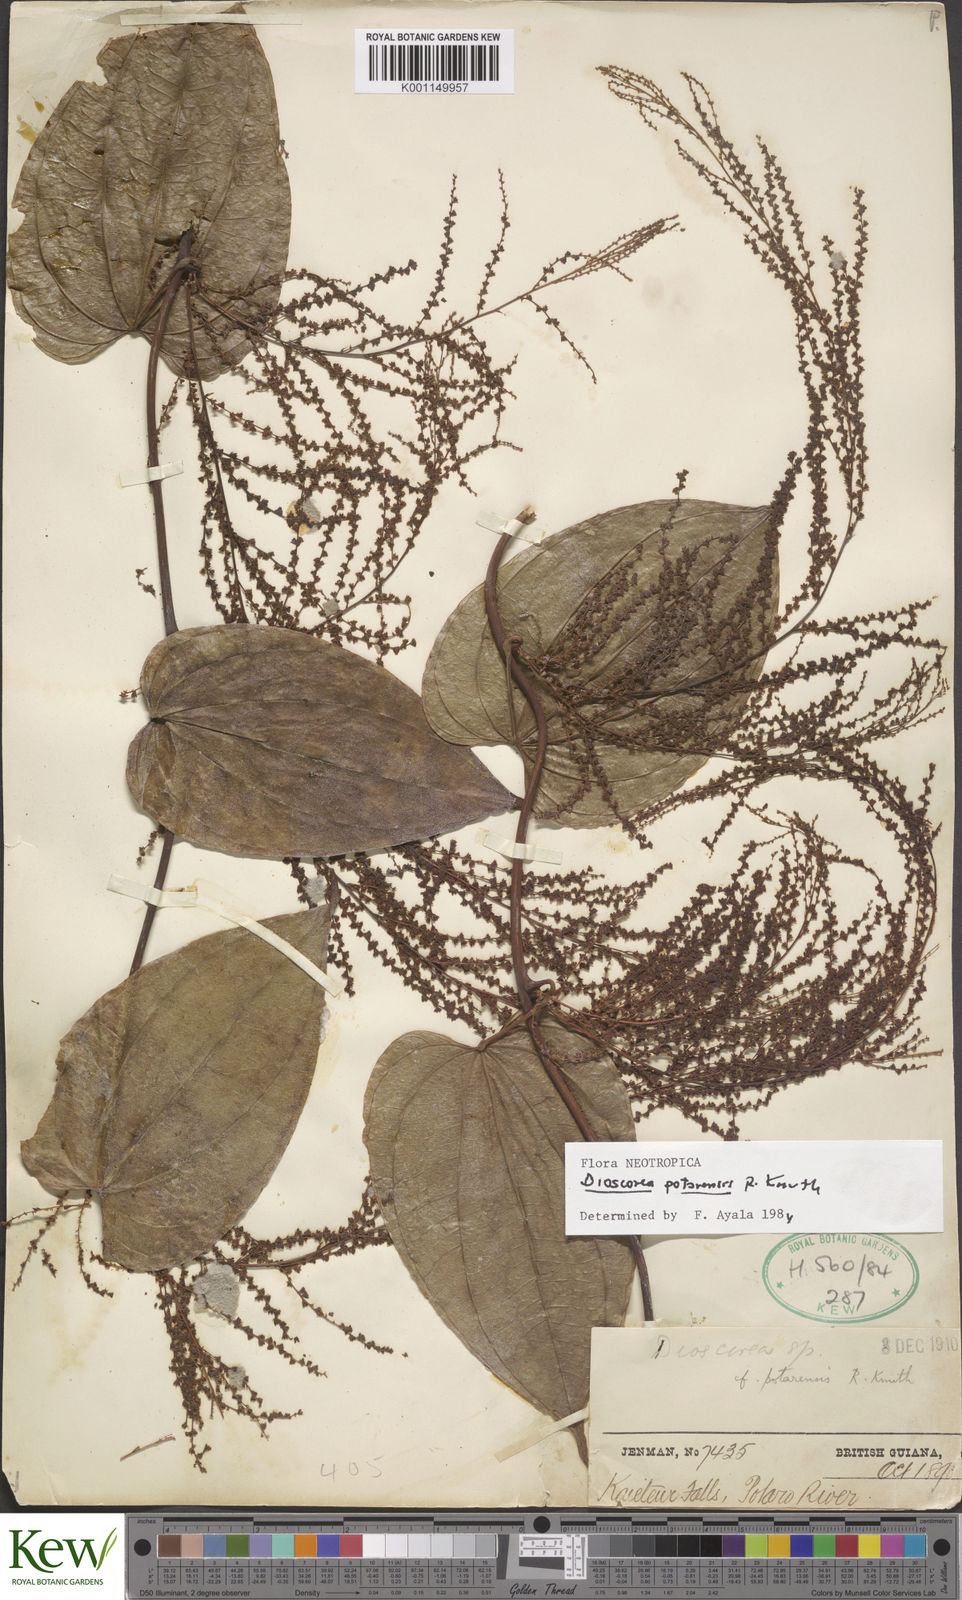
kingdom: Plantae
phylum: Tracheophyta
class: Liliopsida
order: Dioscoreales
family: Dioscoreaceae
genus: Dioscorea
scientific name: Dioscorea
